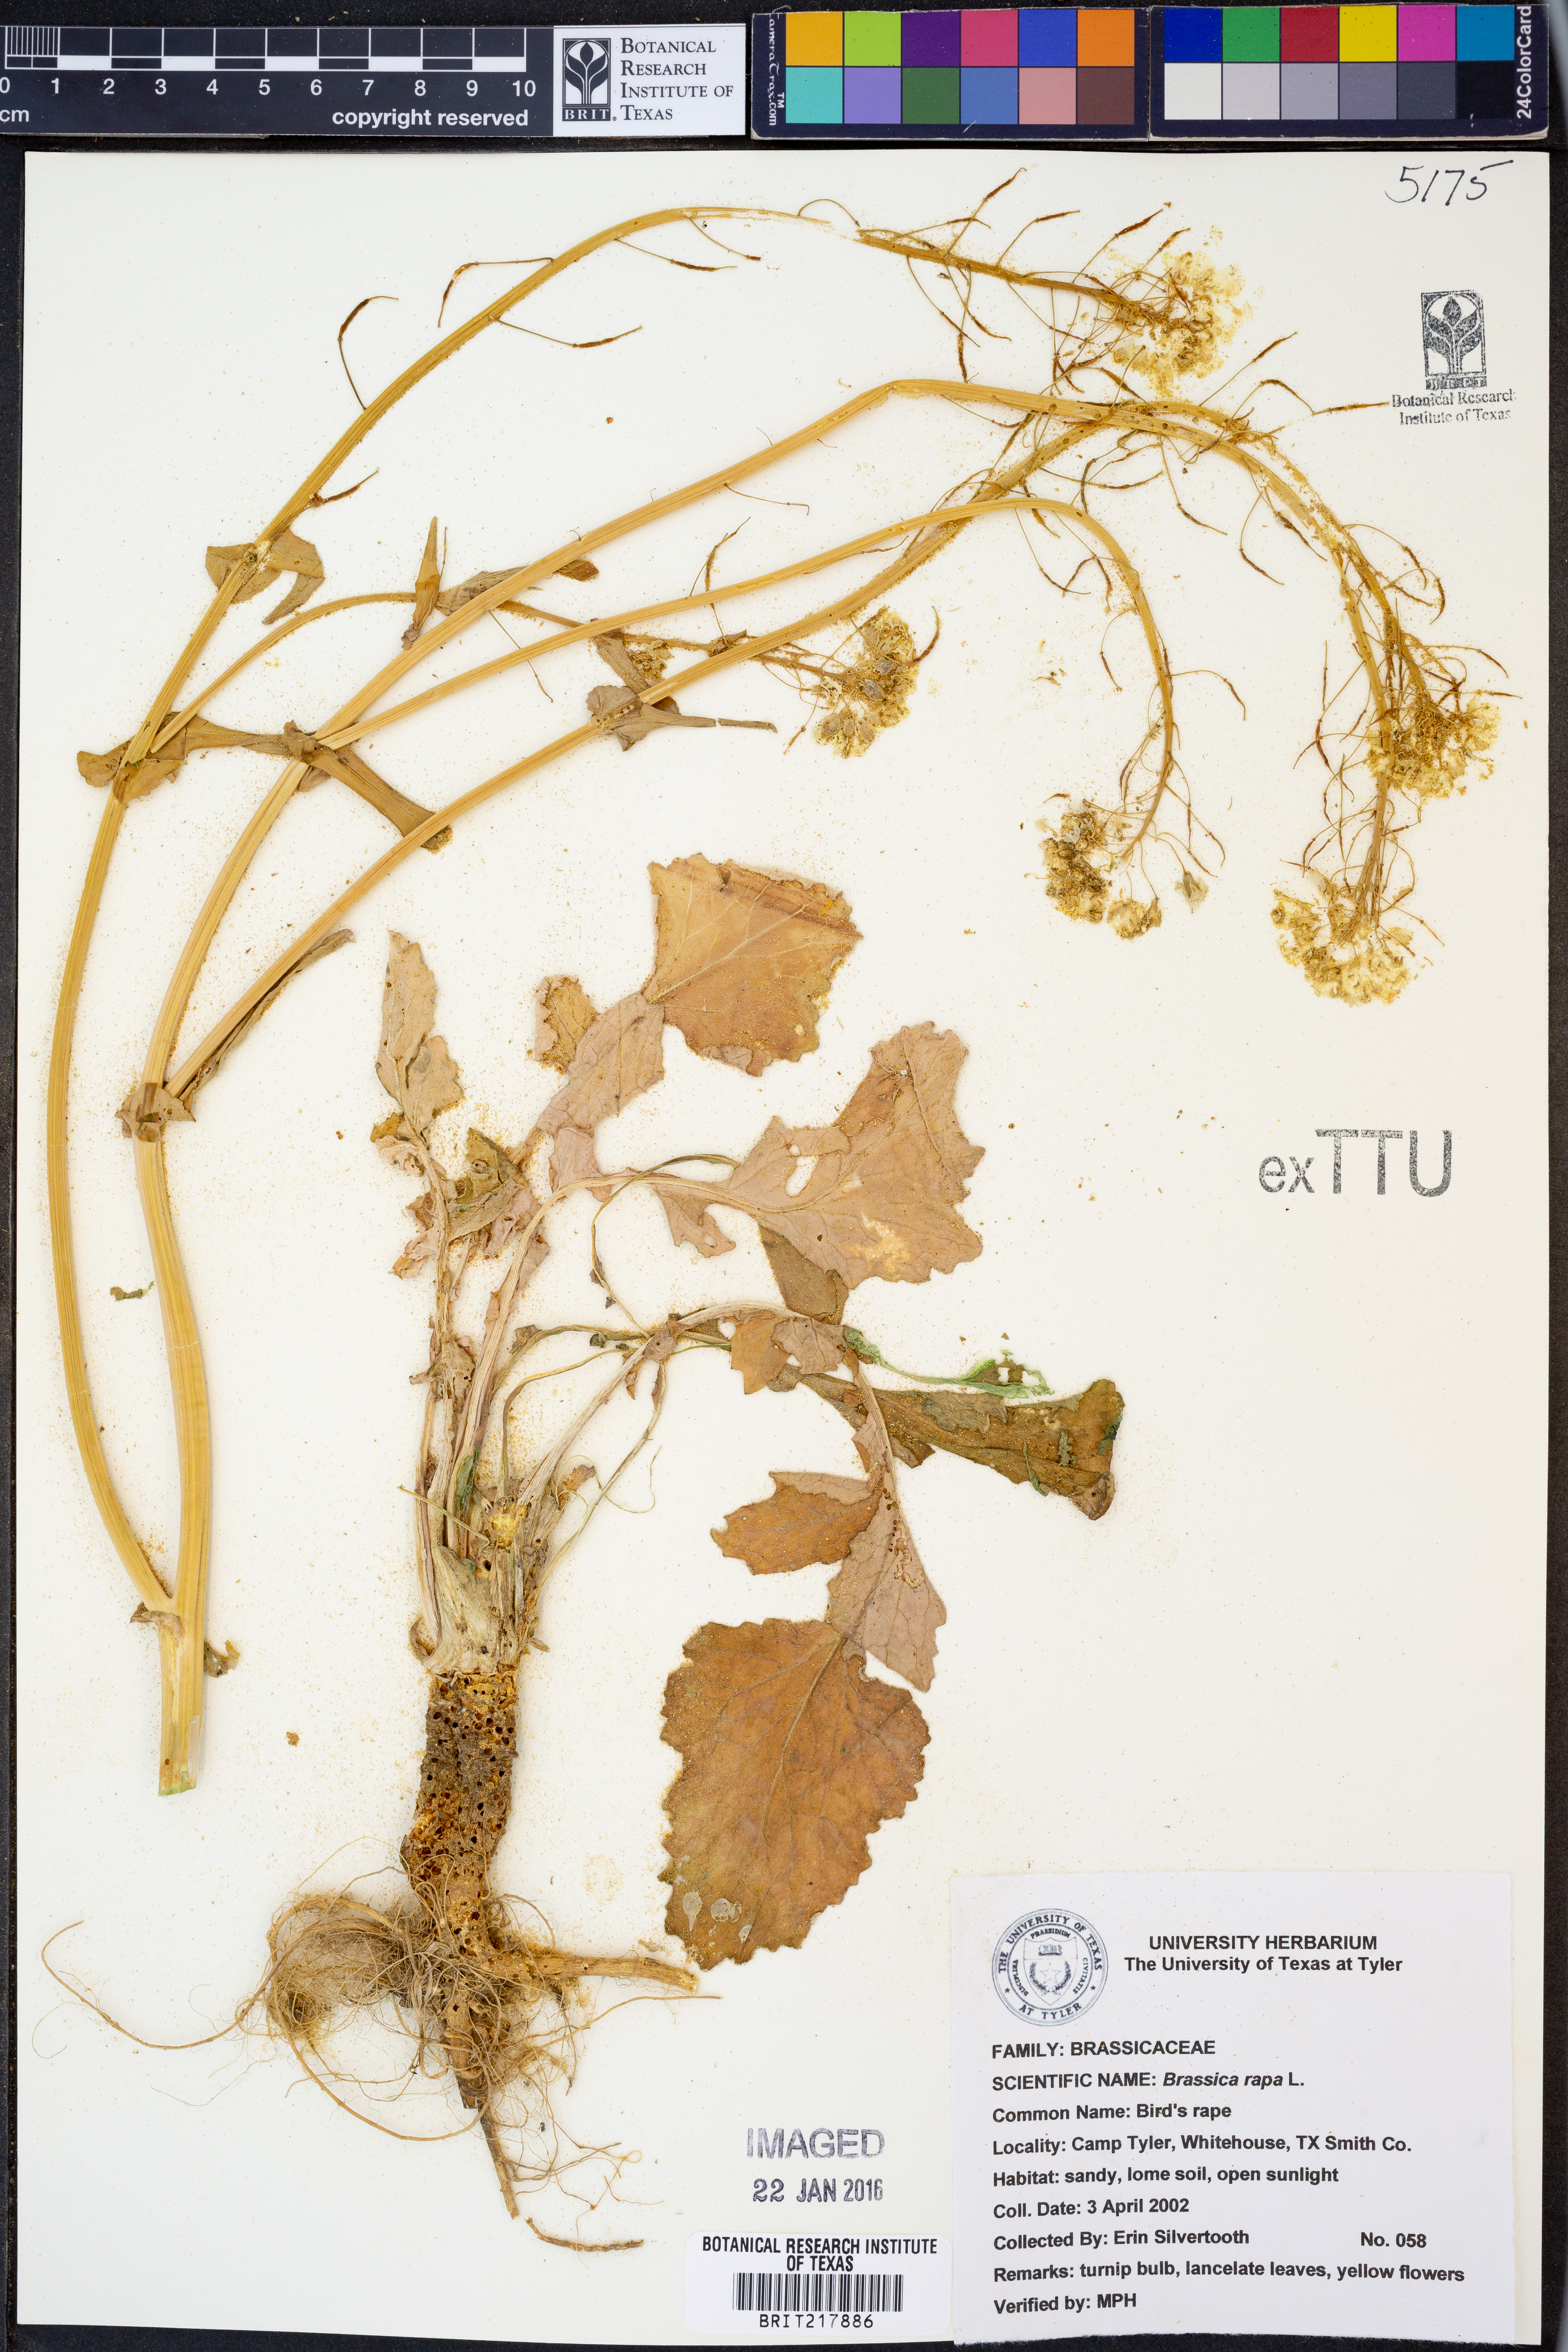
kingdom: Plantae
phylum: Tracheophyta
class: Magnoliopsida
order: Brassicales
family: Brassicaceae
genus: Brassica
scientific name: Brassica rapa
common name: Field mustard
